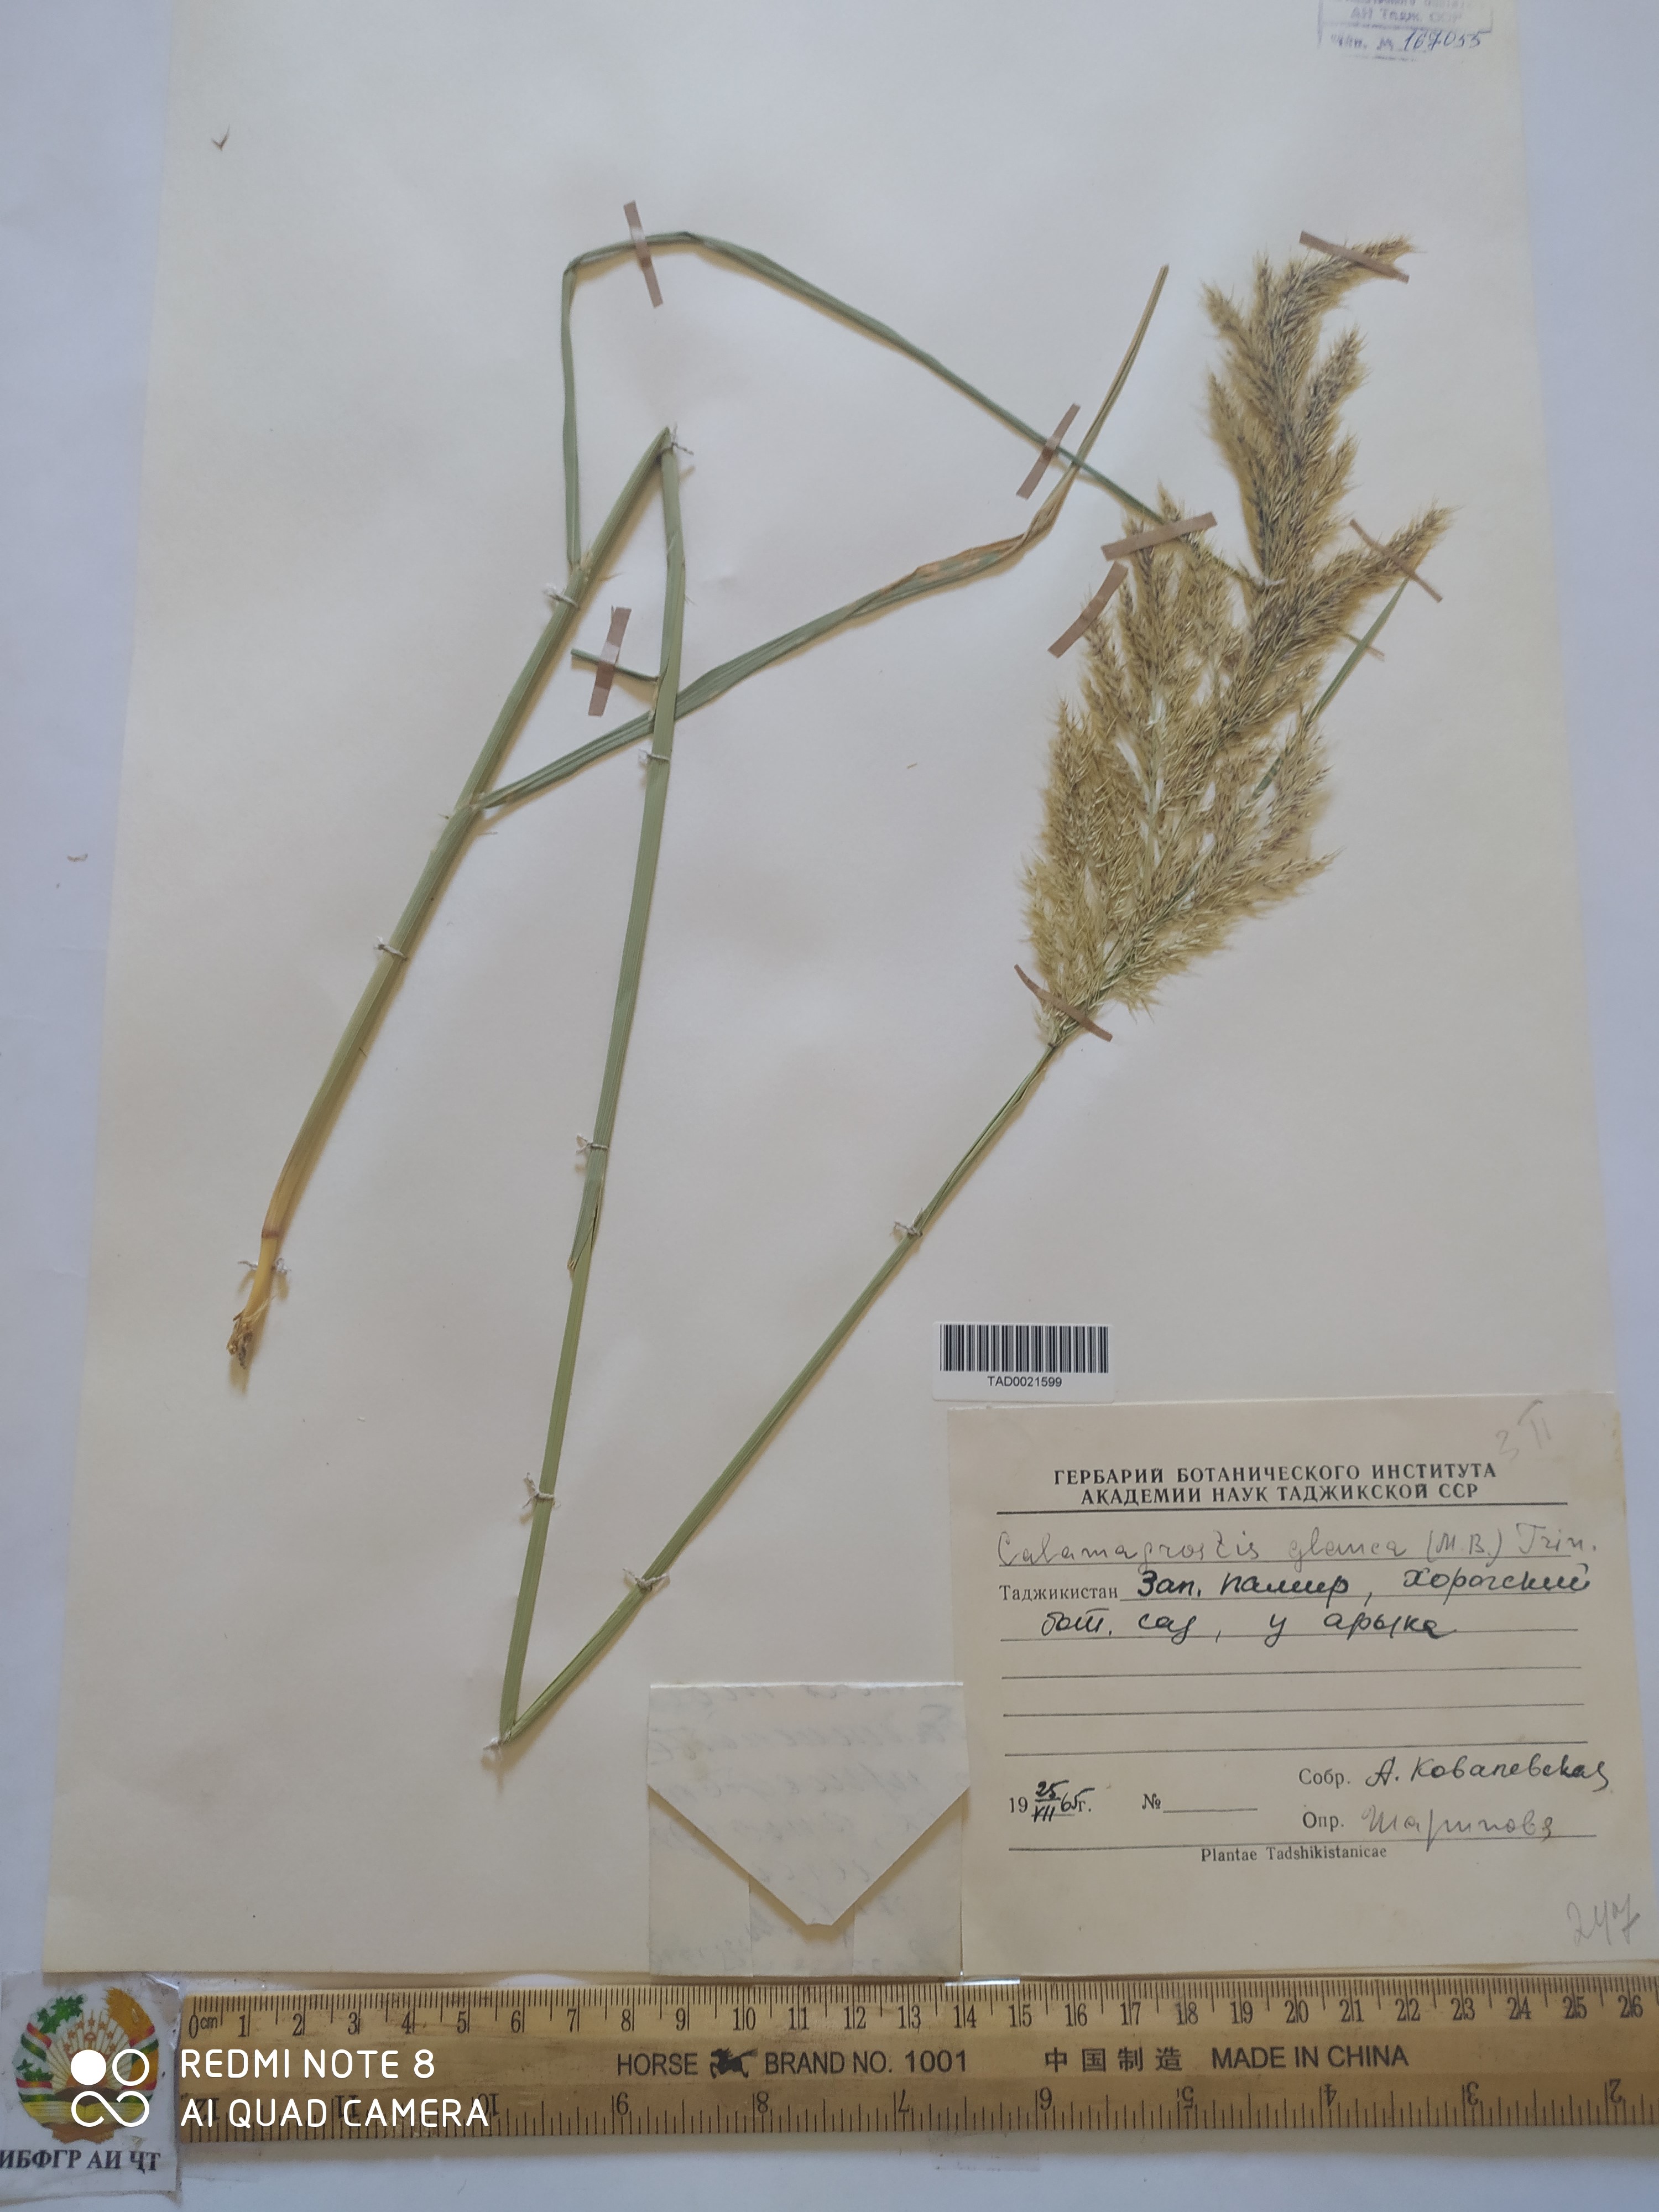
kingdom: Plantae
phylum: Tracheophyta
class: Liliopsida
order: Poales
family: Poaceae
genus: Calamagrostis
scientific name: Calamagrostis pseudophragmites
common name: Coastal small-reed
